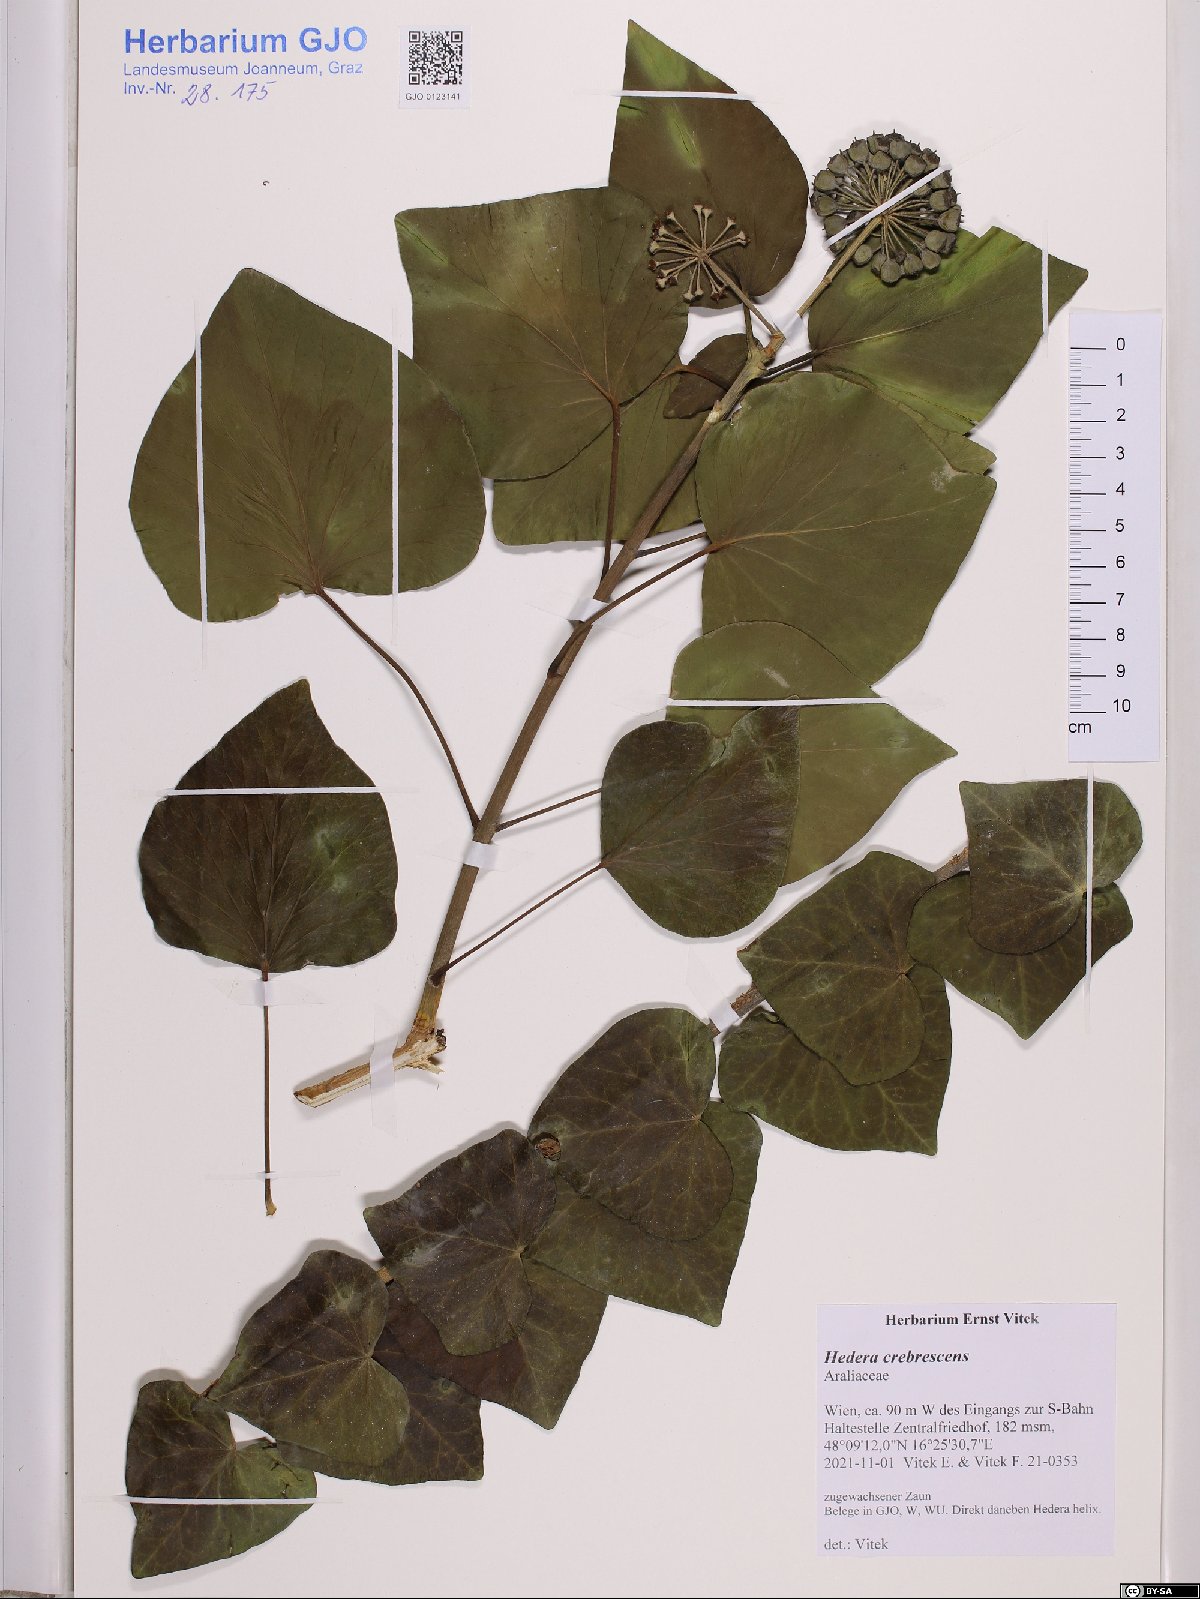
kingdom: Plantae
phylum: Tracheophyta
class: Magnoliopsida
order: Apiales
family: Araliaceae
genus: Hedera
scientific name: Hedera crebrescens
